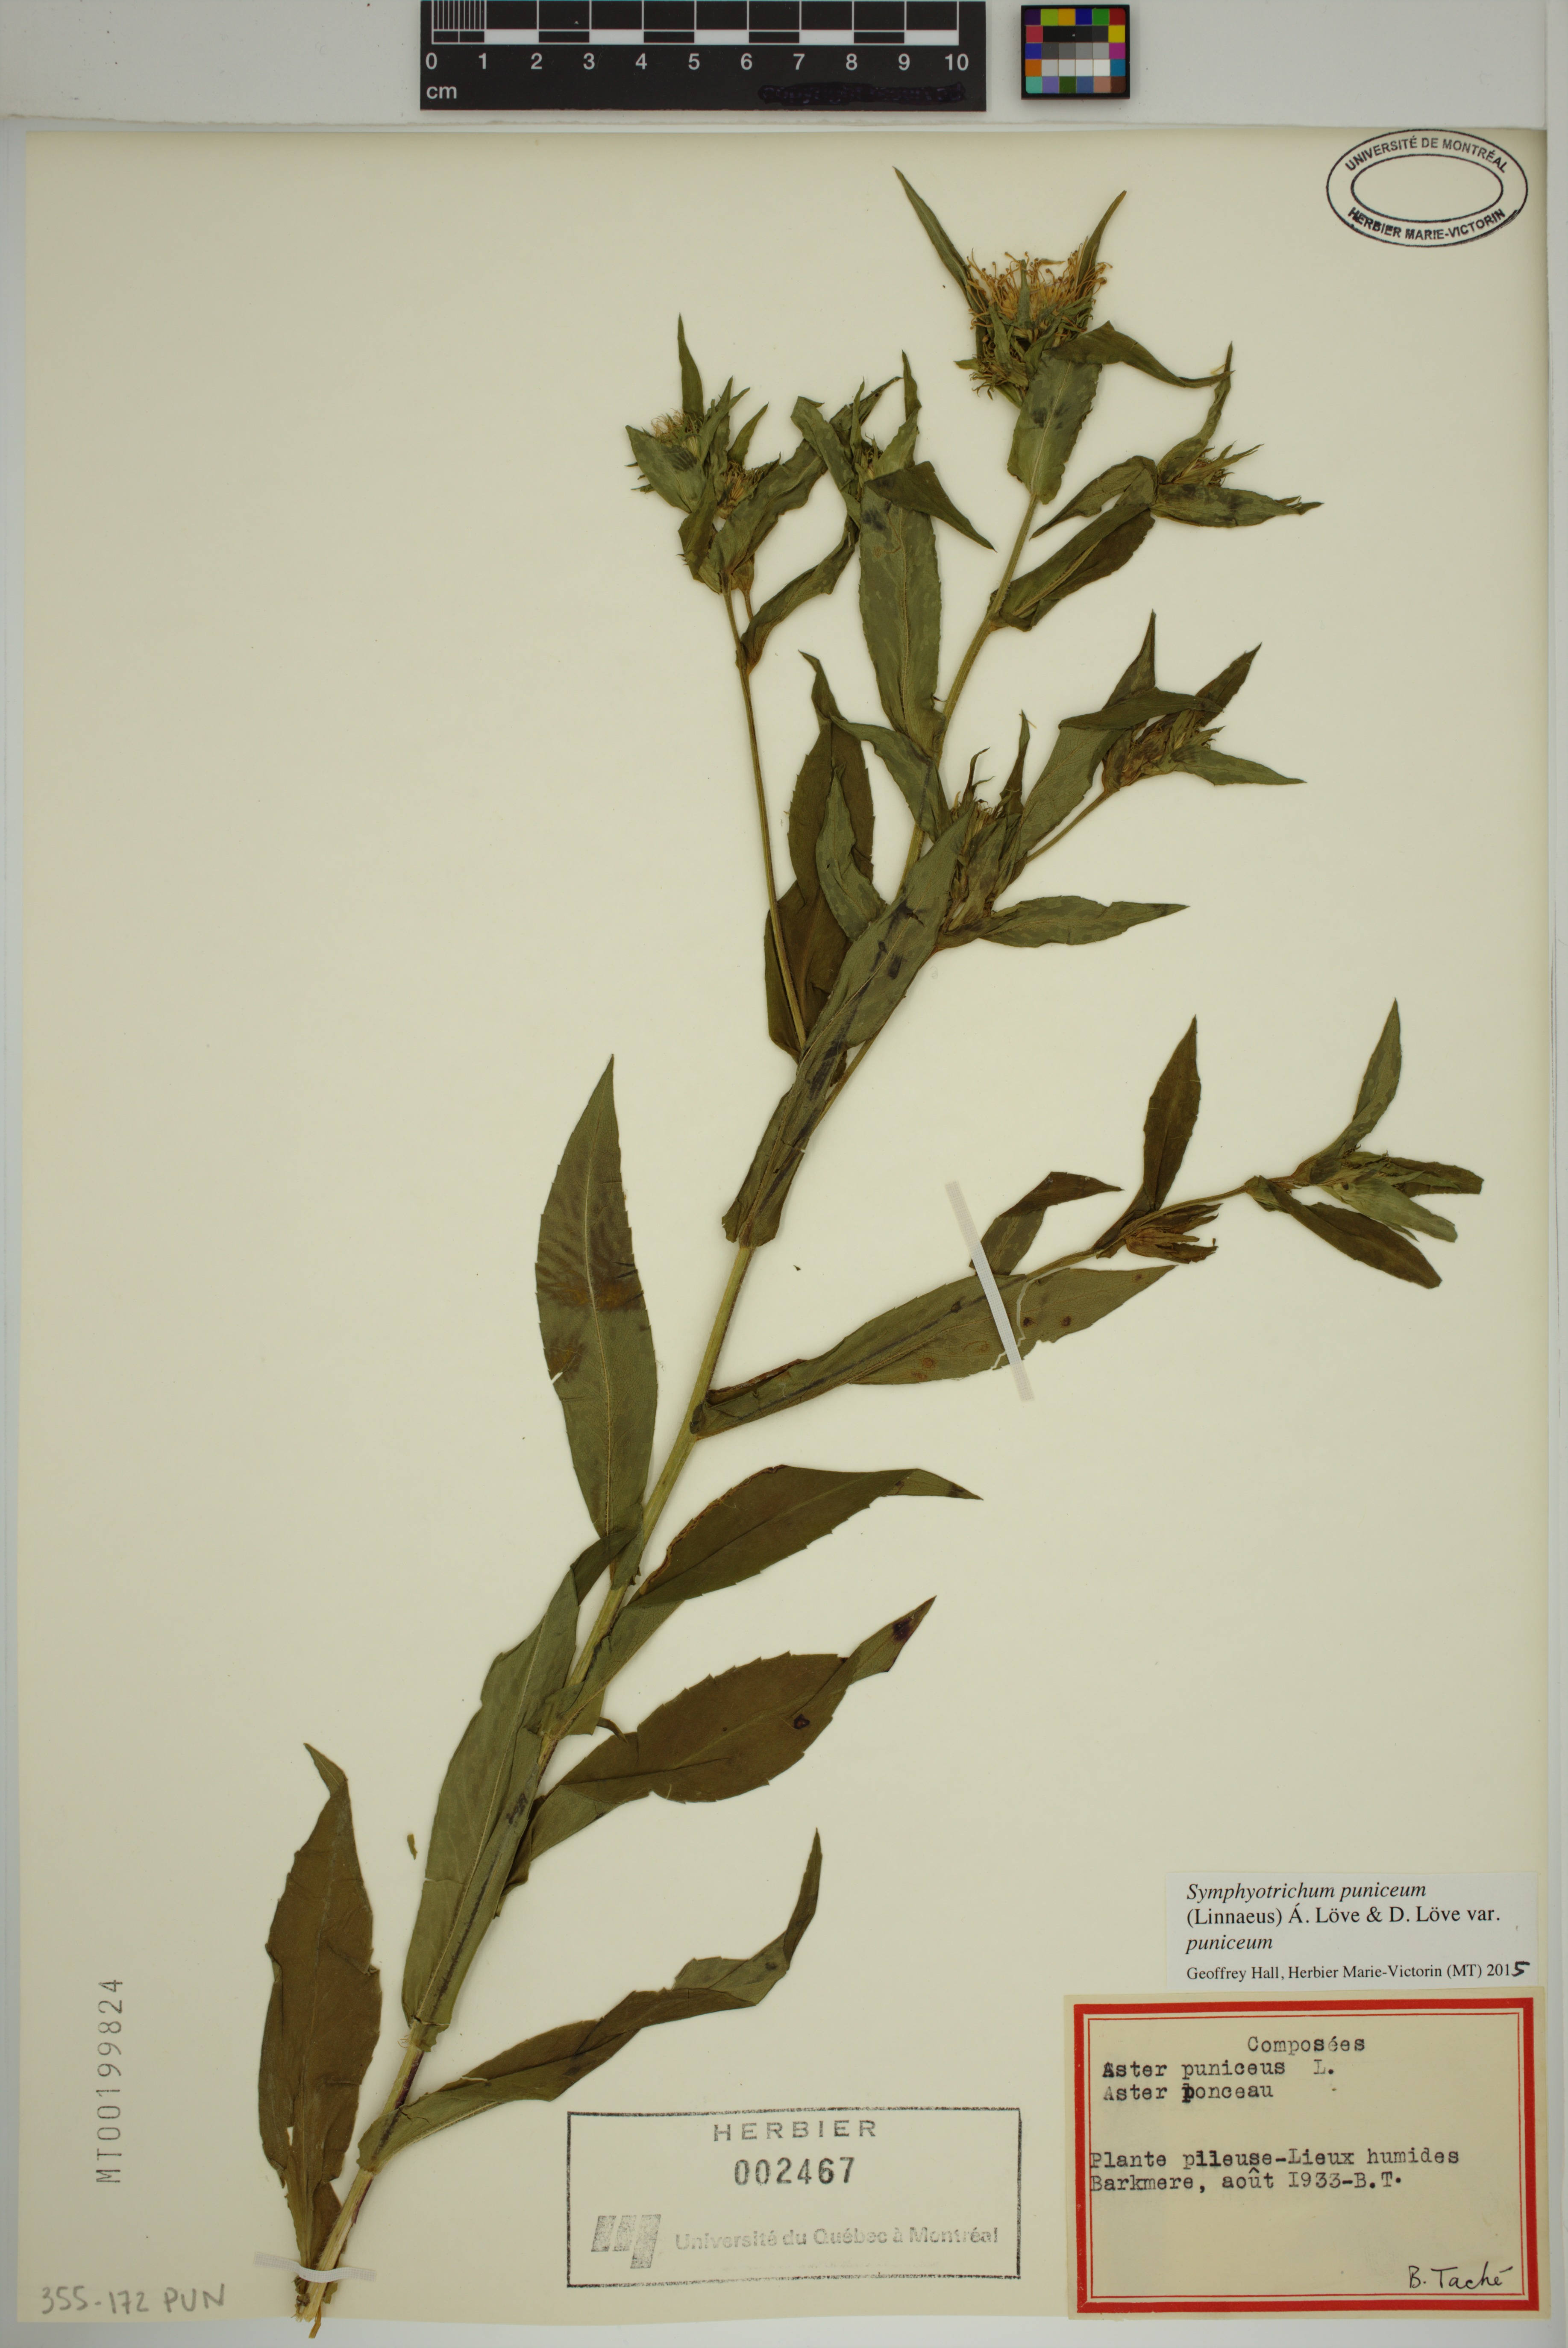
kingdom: Plantae
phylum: Tracheophyta
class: Magnoliopsida
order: Asterales
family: Asteraceae
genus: Symphyotrichum
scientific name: Symphyotrichum puniceum
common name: Bog aster
